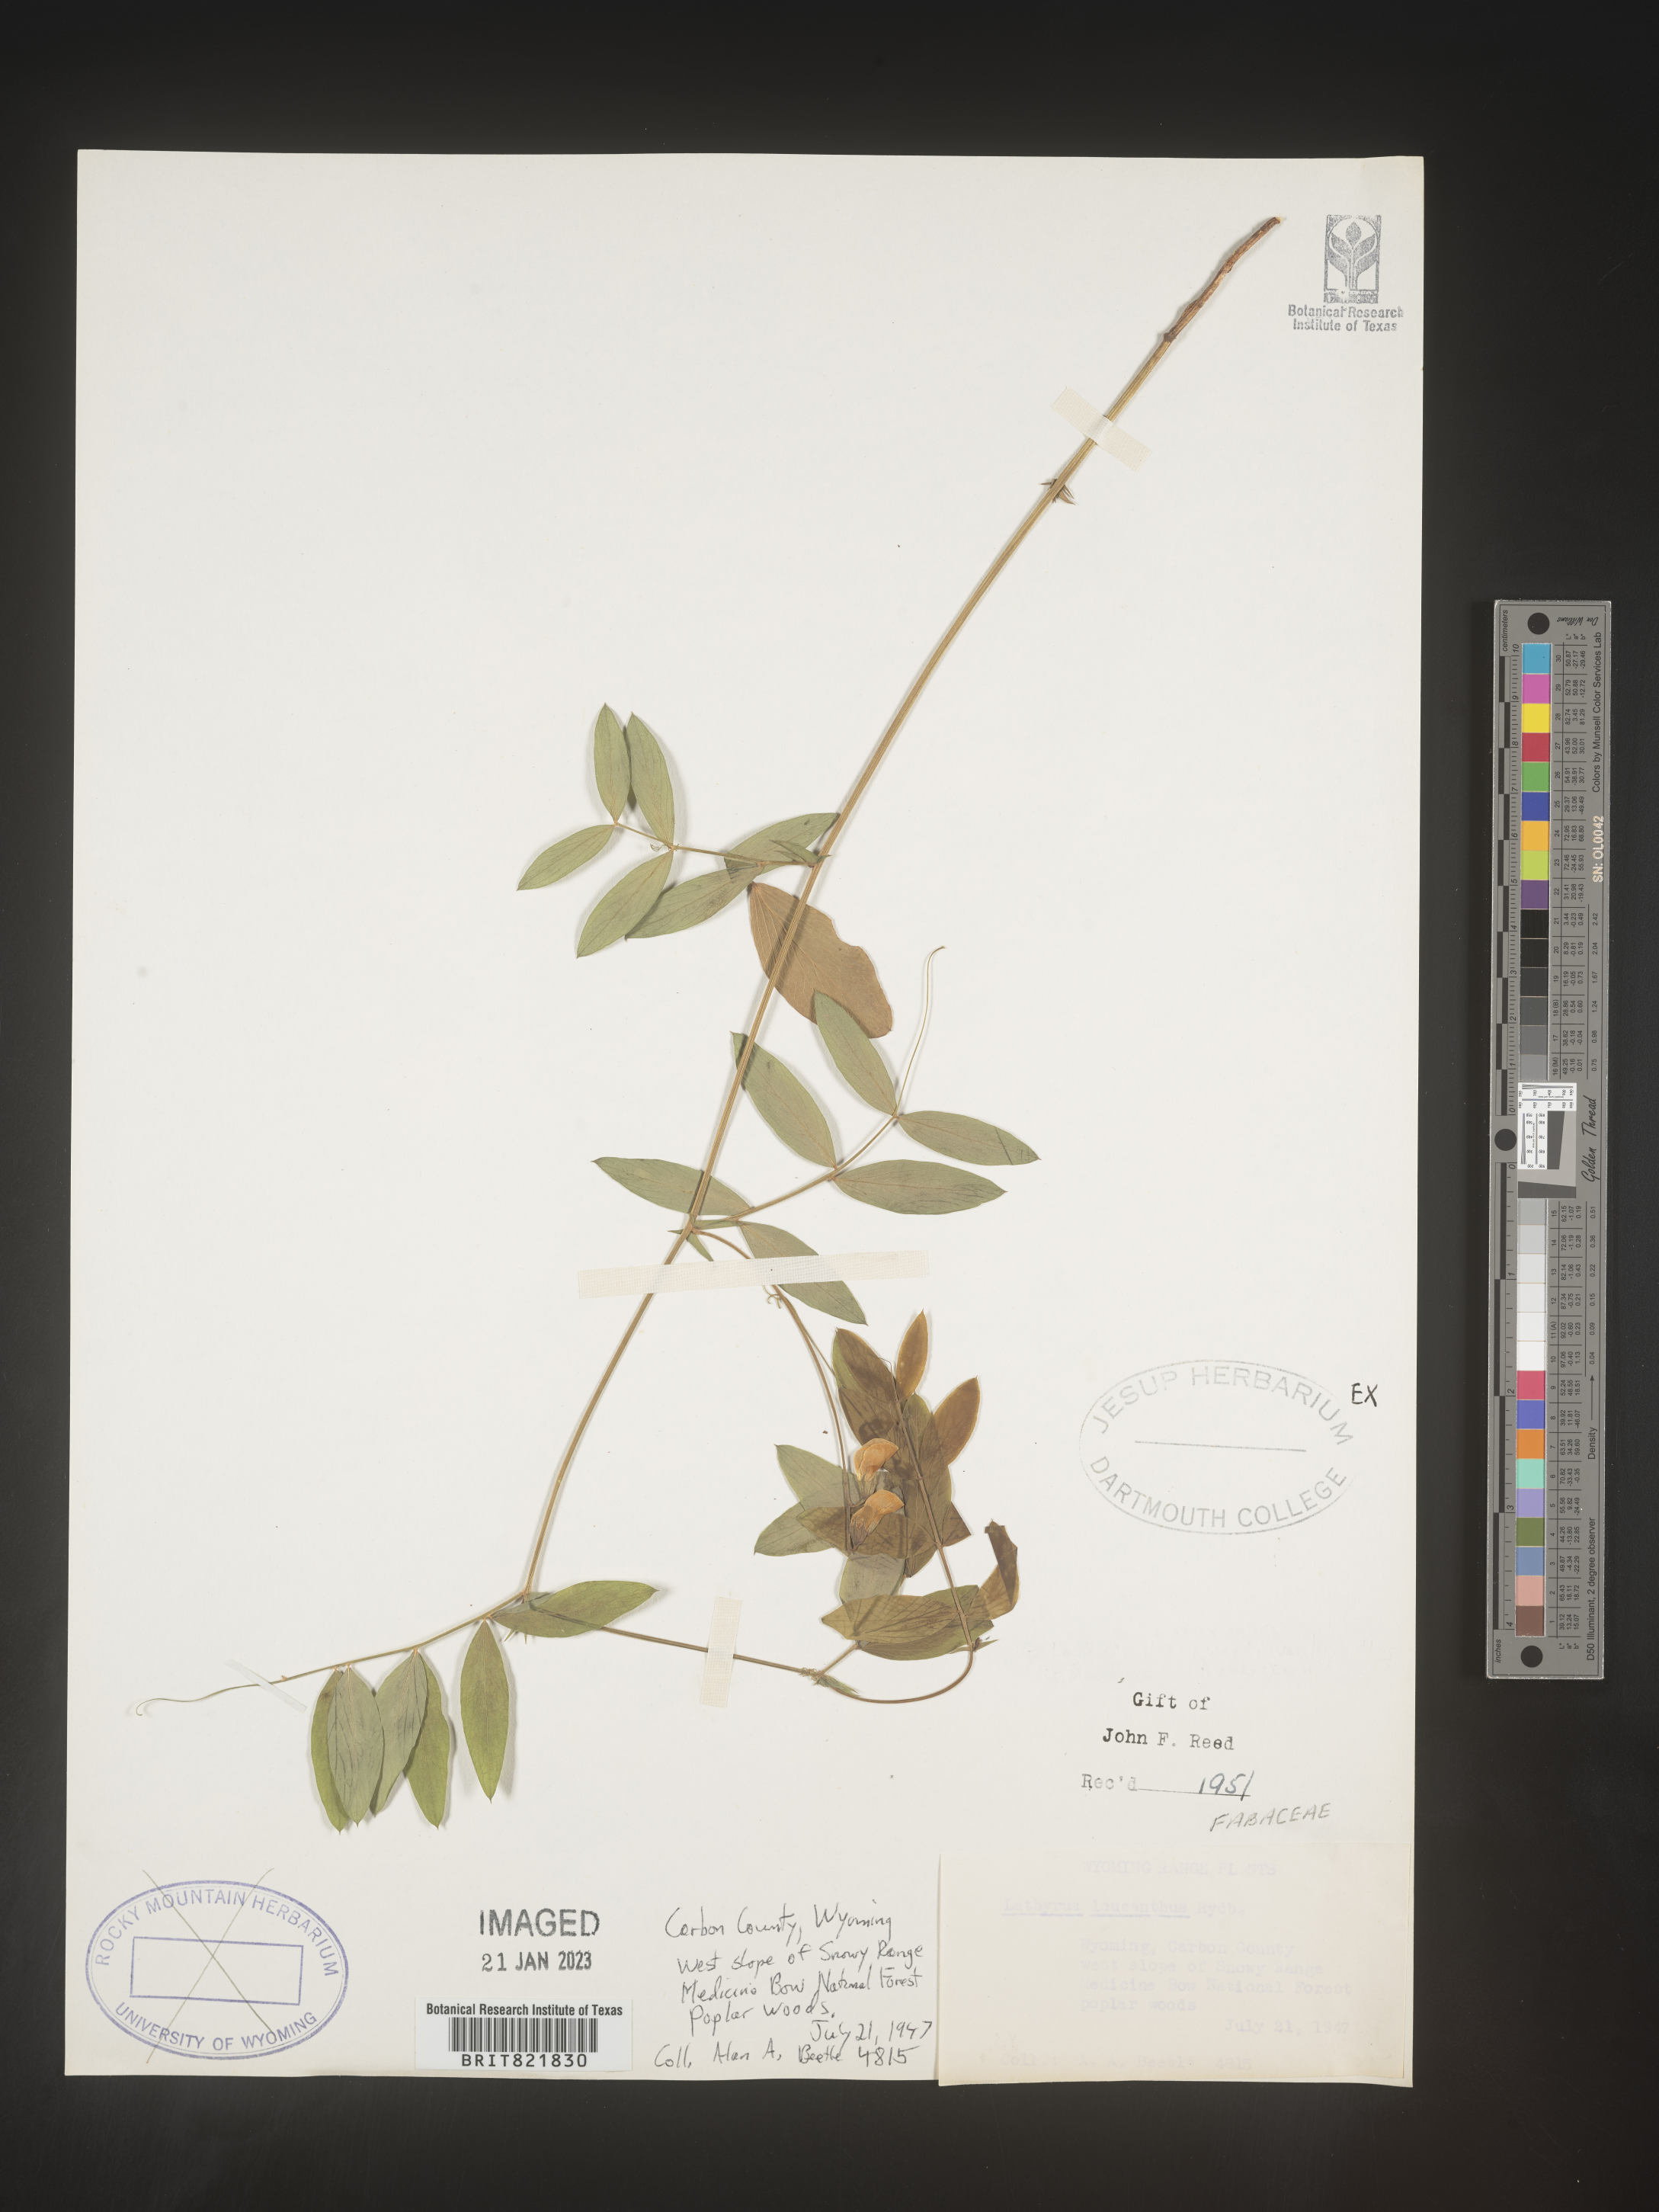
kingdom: Plantae
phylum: Tracheophyta
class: Magnoliopsida
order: Fabales
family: Fabaceae
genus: Lathyrus
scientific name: Lathyrus
